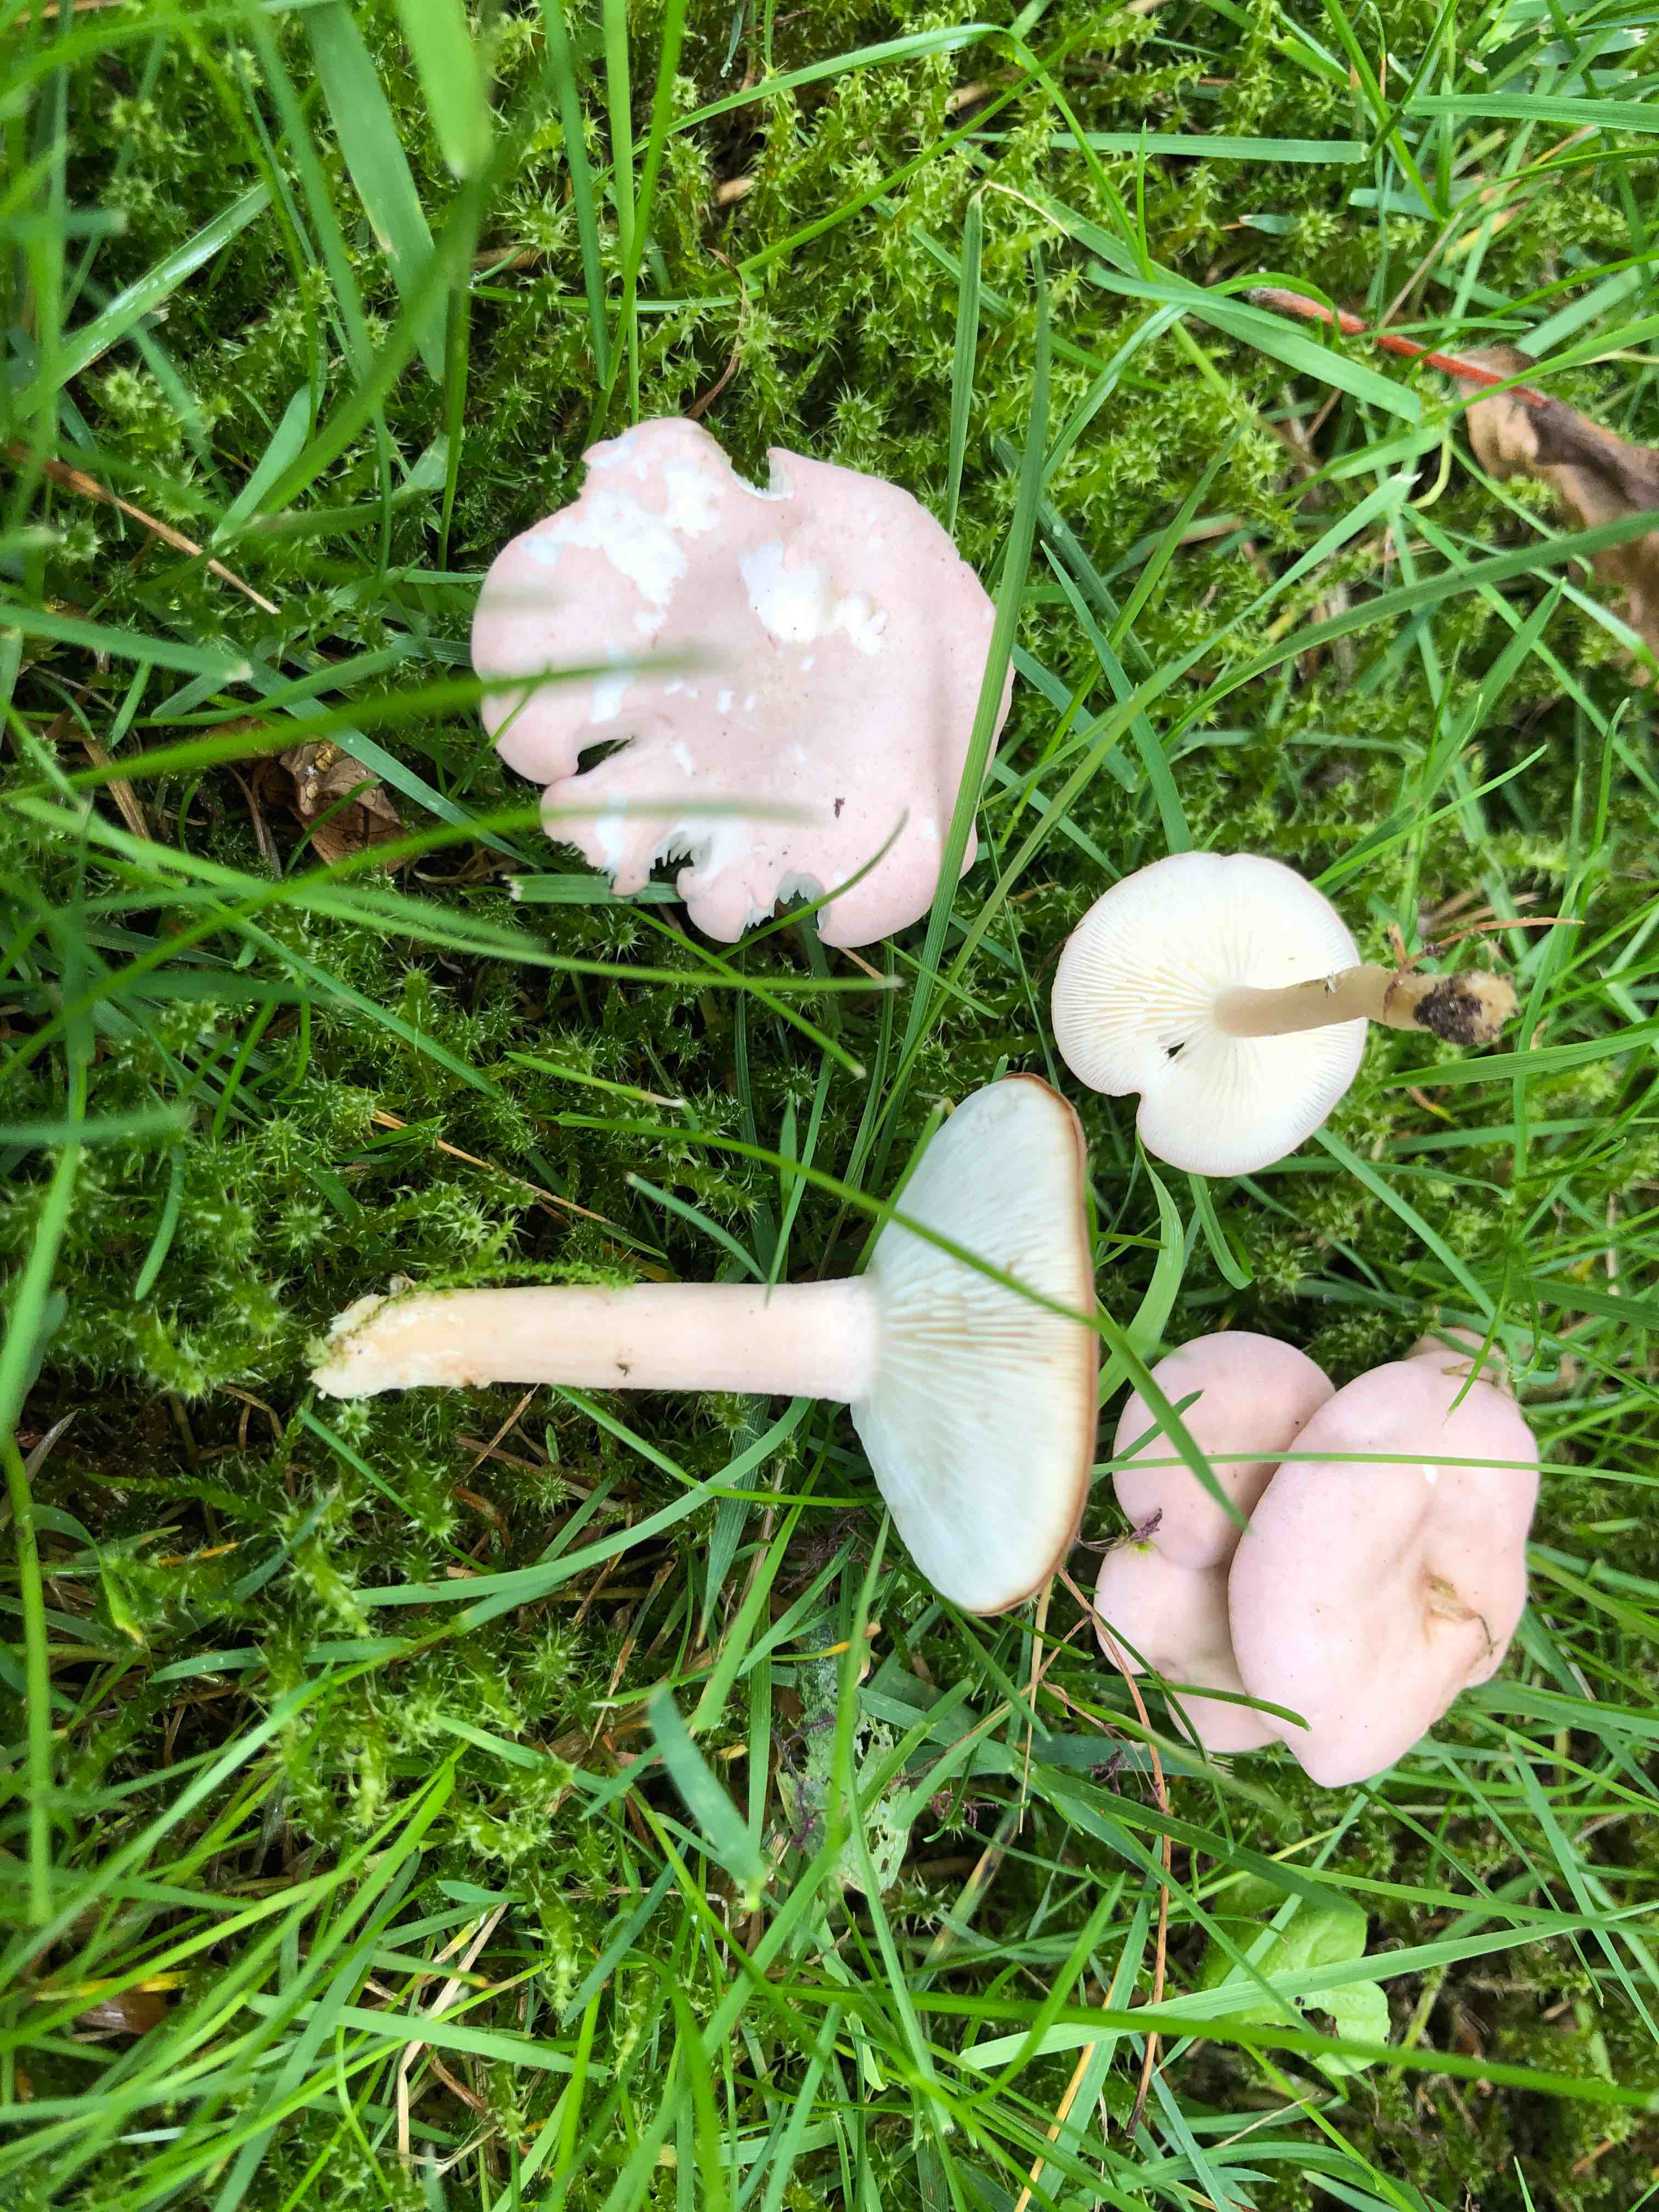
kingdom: Fungi
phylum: Basidiomycota
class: Agaricomycetes
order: Agaricales
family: Lyophyllaceae
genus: Calocybe
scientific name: Calocybe carnea
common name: rosa fagerhat
